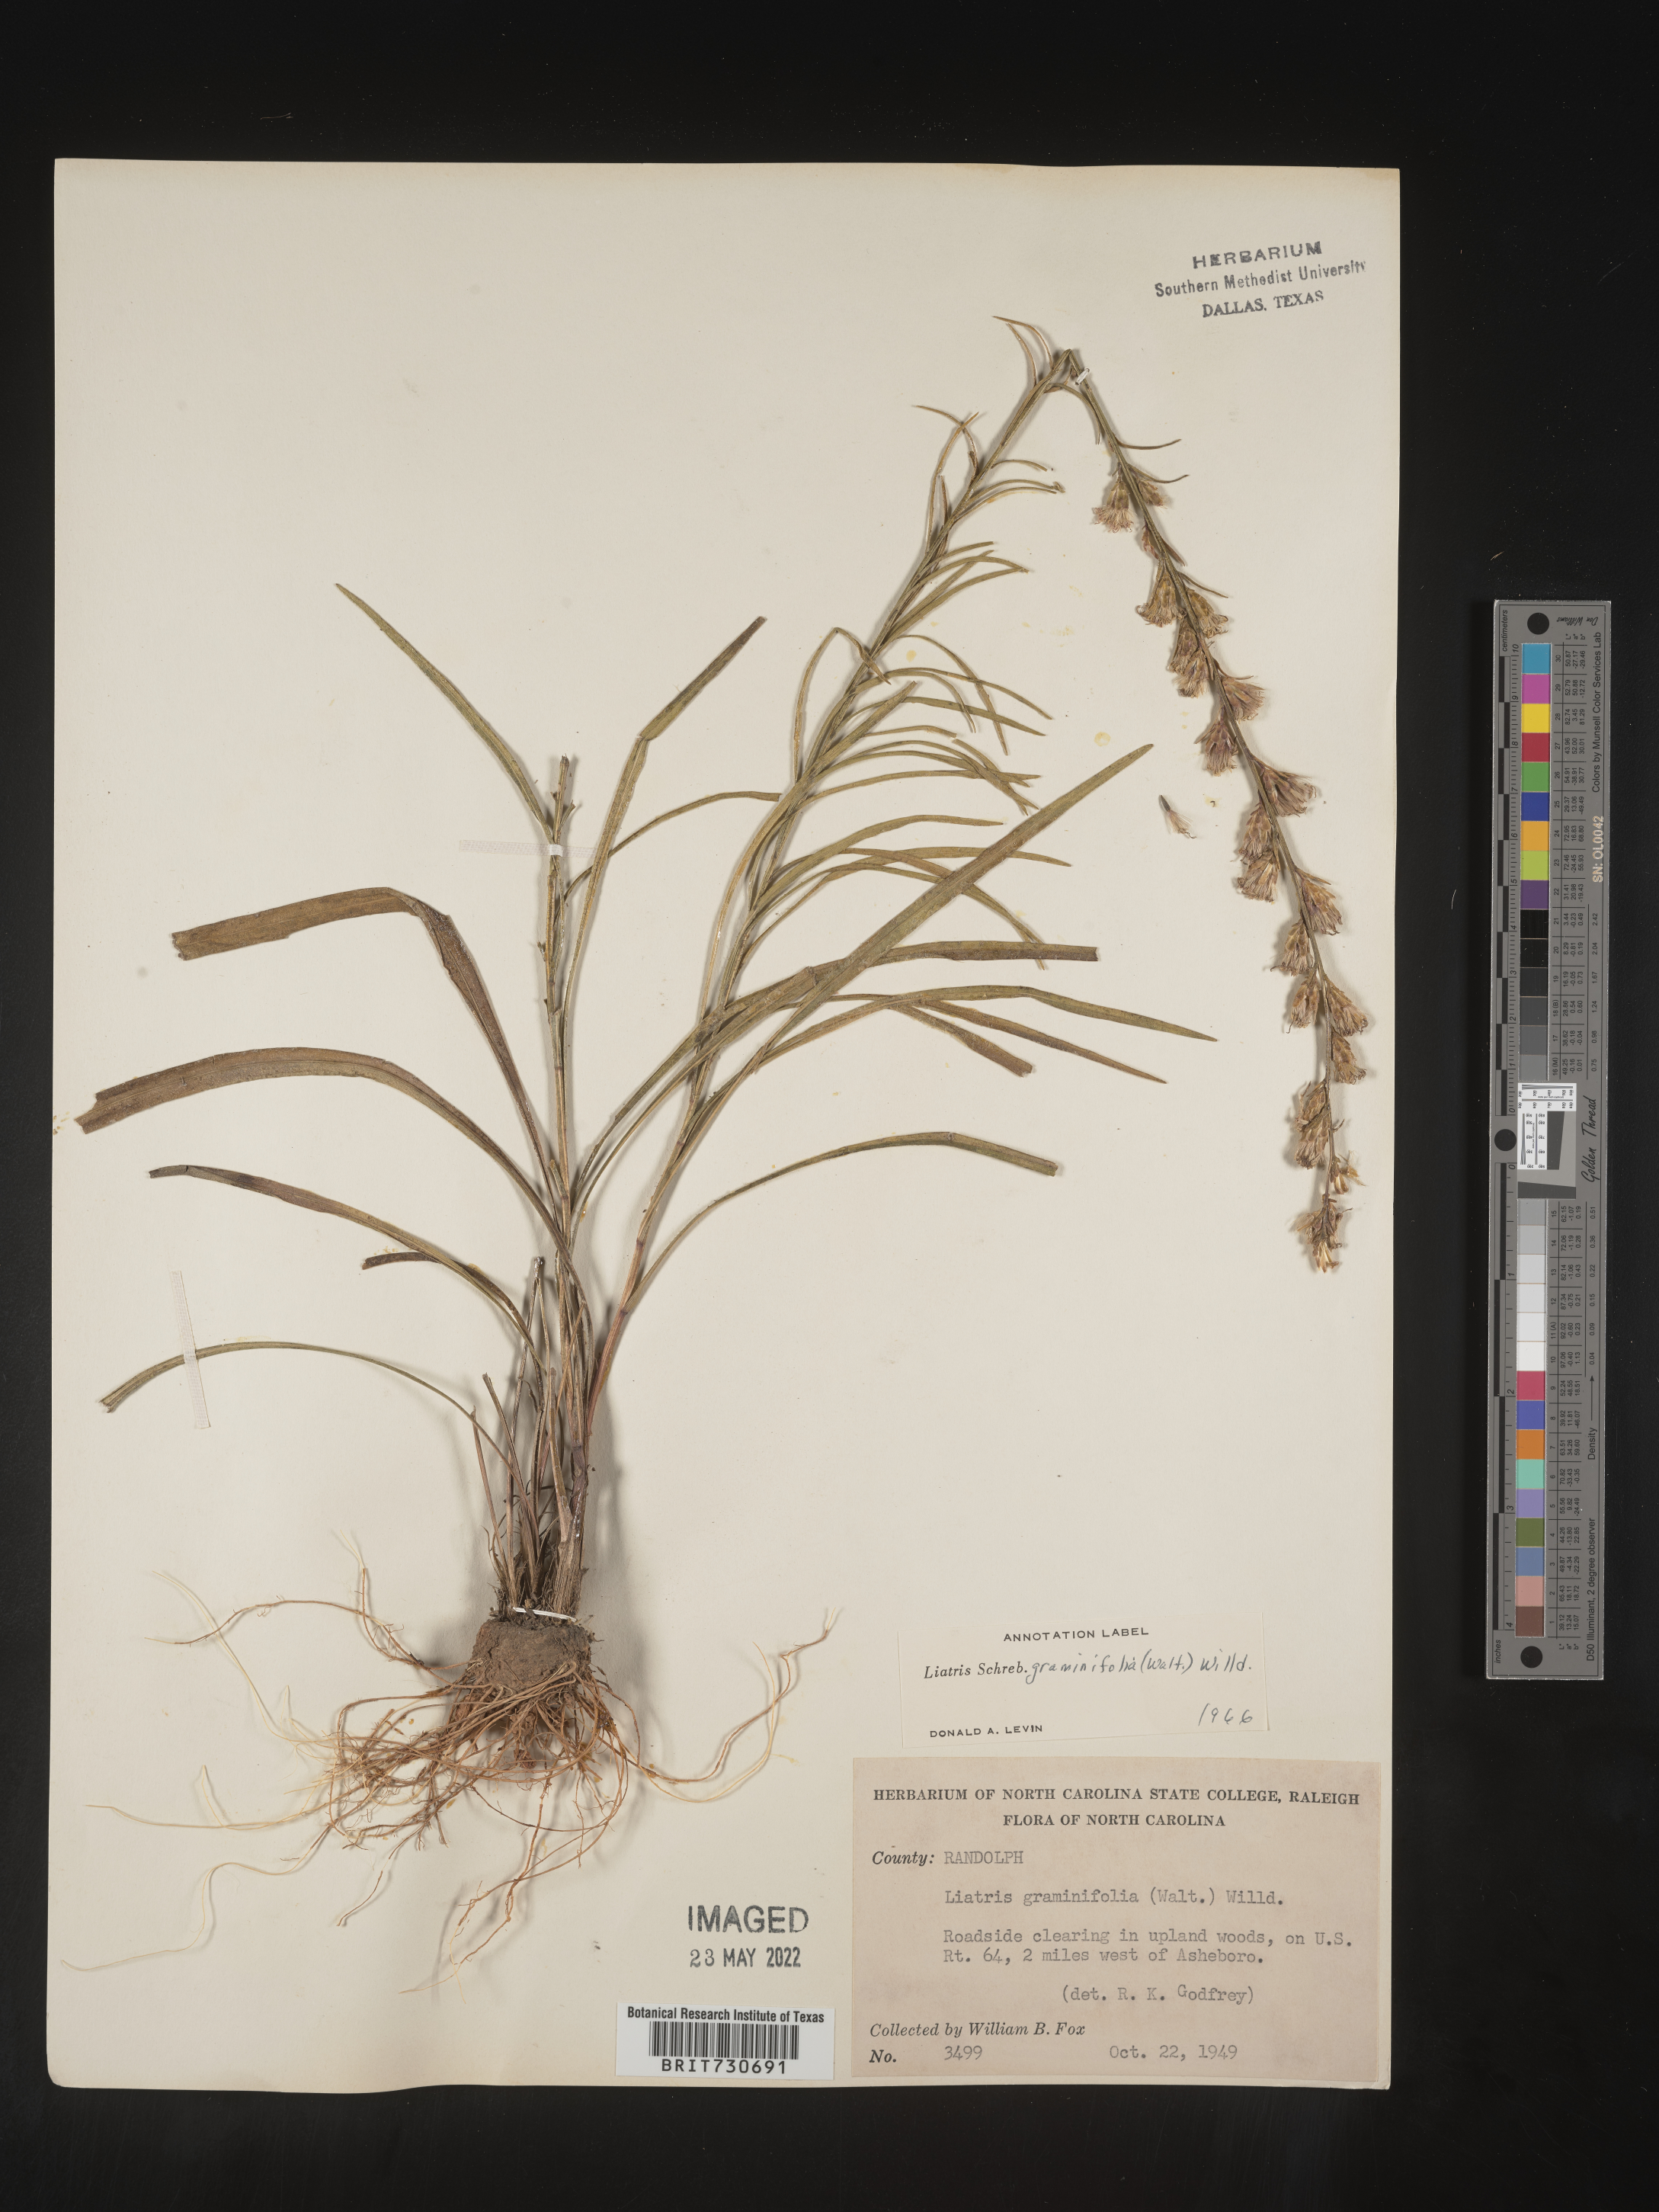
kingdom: Plantae
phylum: Tracheophyta
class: Magnoliopsida
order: Asterales
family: Asteraceae
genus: Liatris
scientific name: Liatris pilosa
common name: Grass-leaf gayfeather
